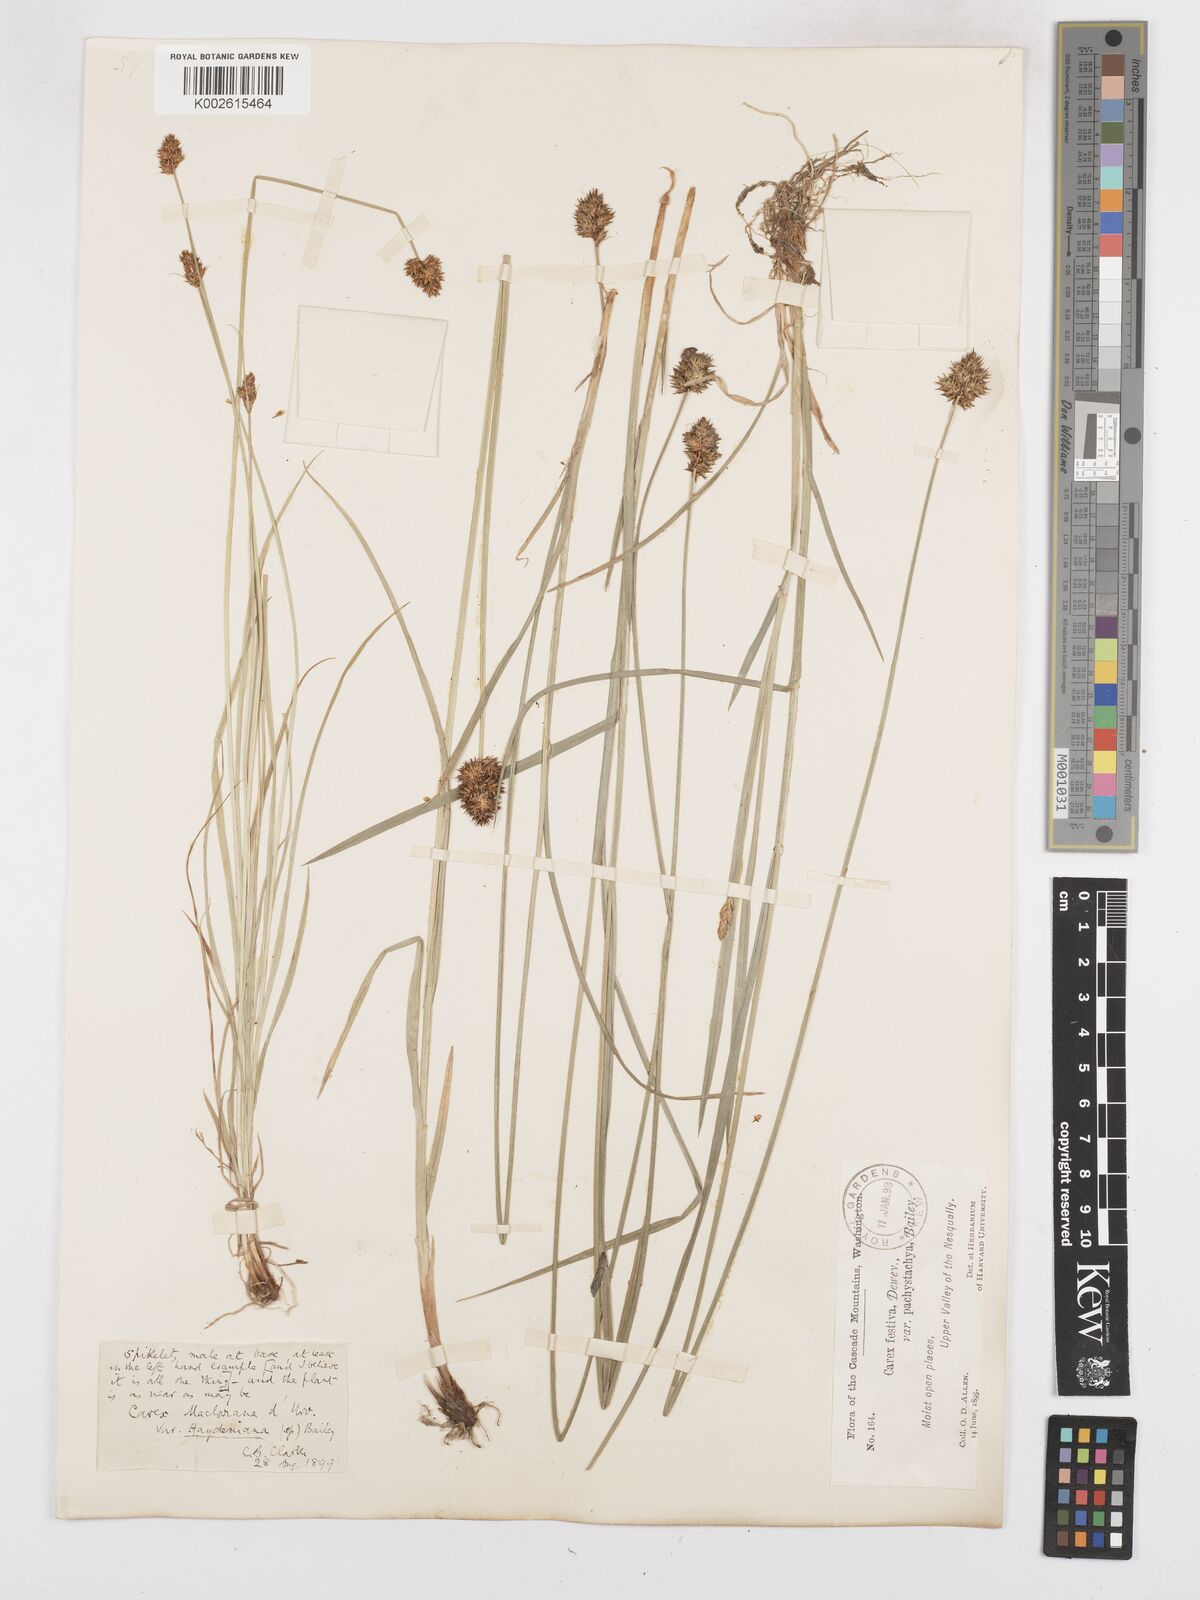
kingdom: Plantae
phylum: Tracheophyta
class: Liliopsida
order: Poales
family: Cyperaceae
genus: Carex
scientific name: Carex haydeniana
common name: Cloud sedge
